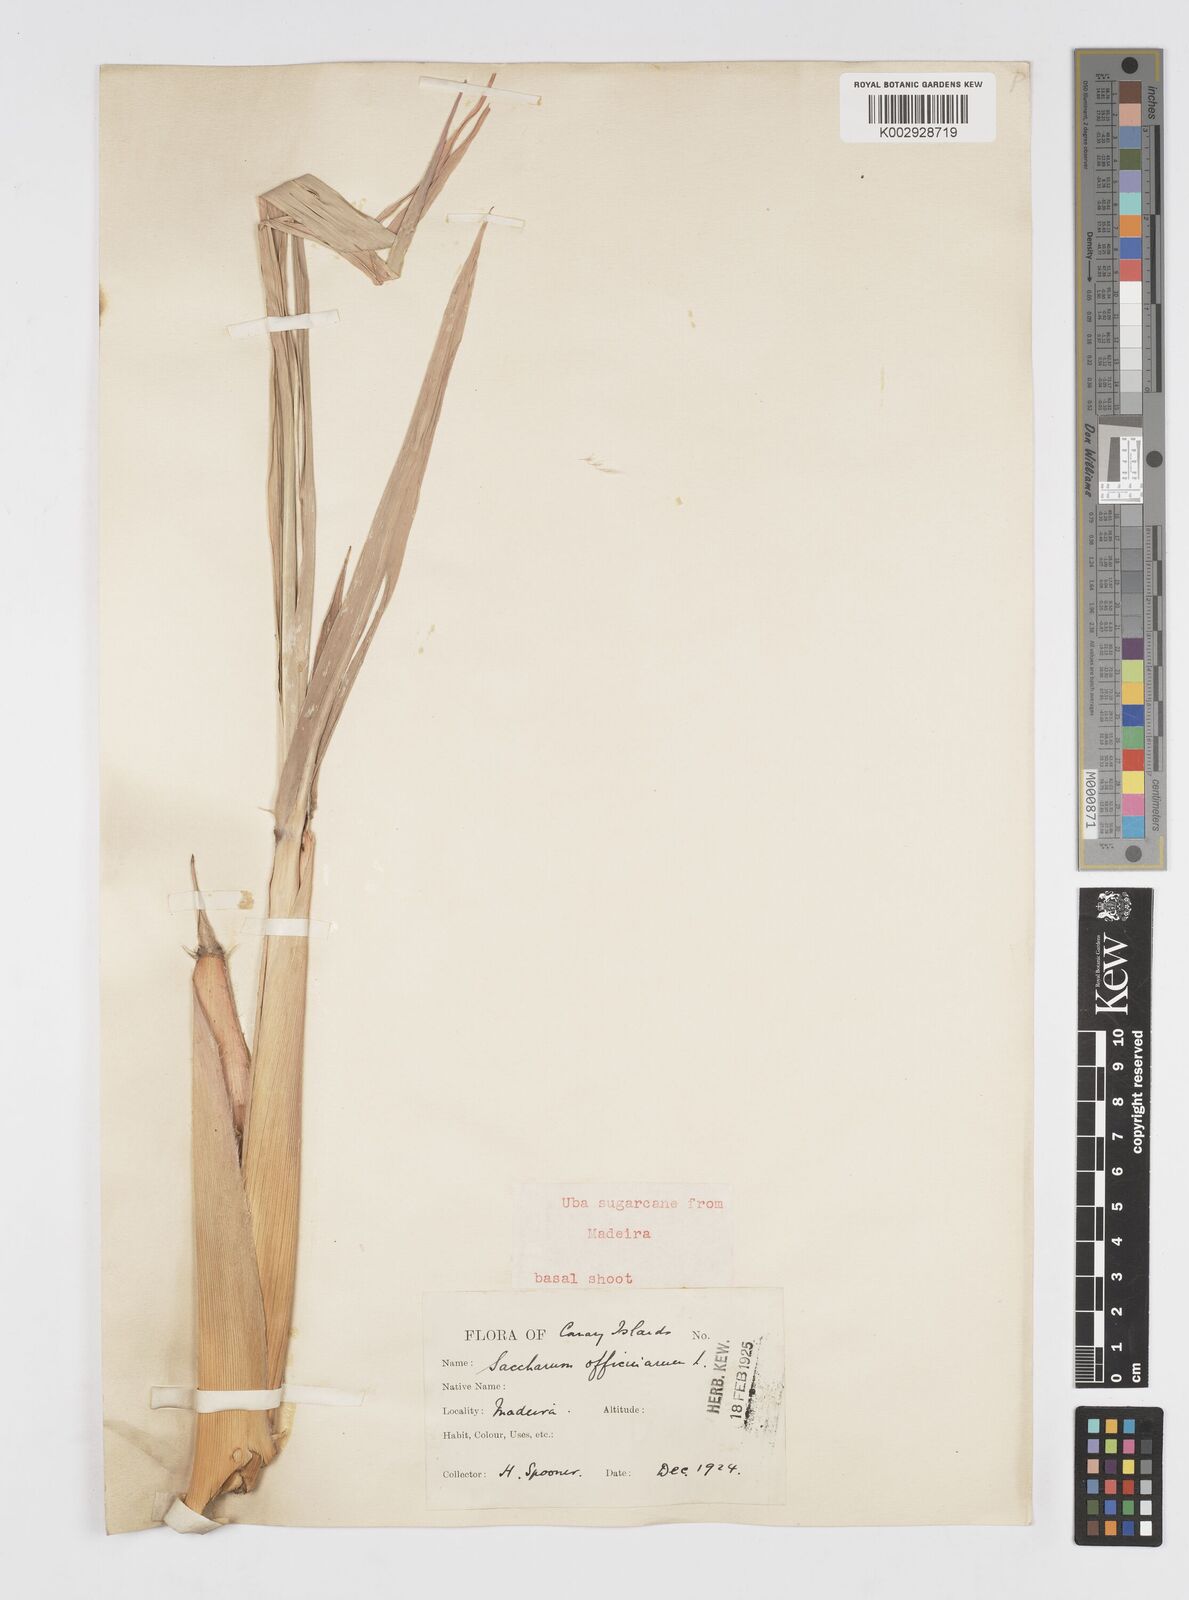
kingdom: Plantae
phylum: Tracheophyta
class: Liliopsida
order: Poales
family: Poaceae
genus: Saccharum
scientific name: Saccharum officinarum
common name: Sugarcane
